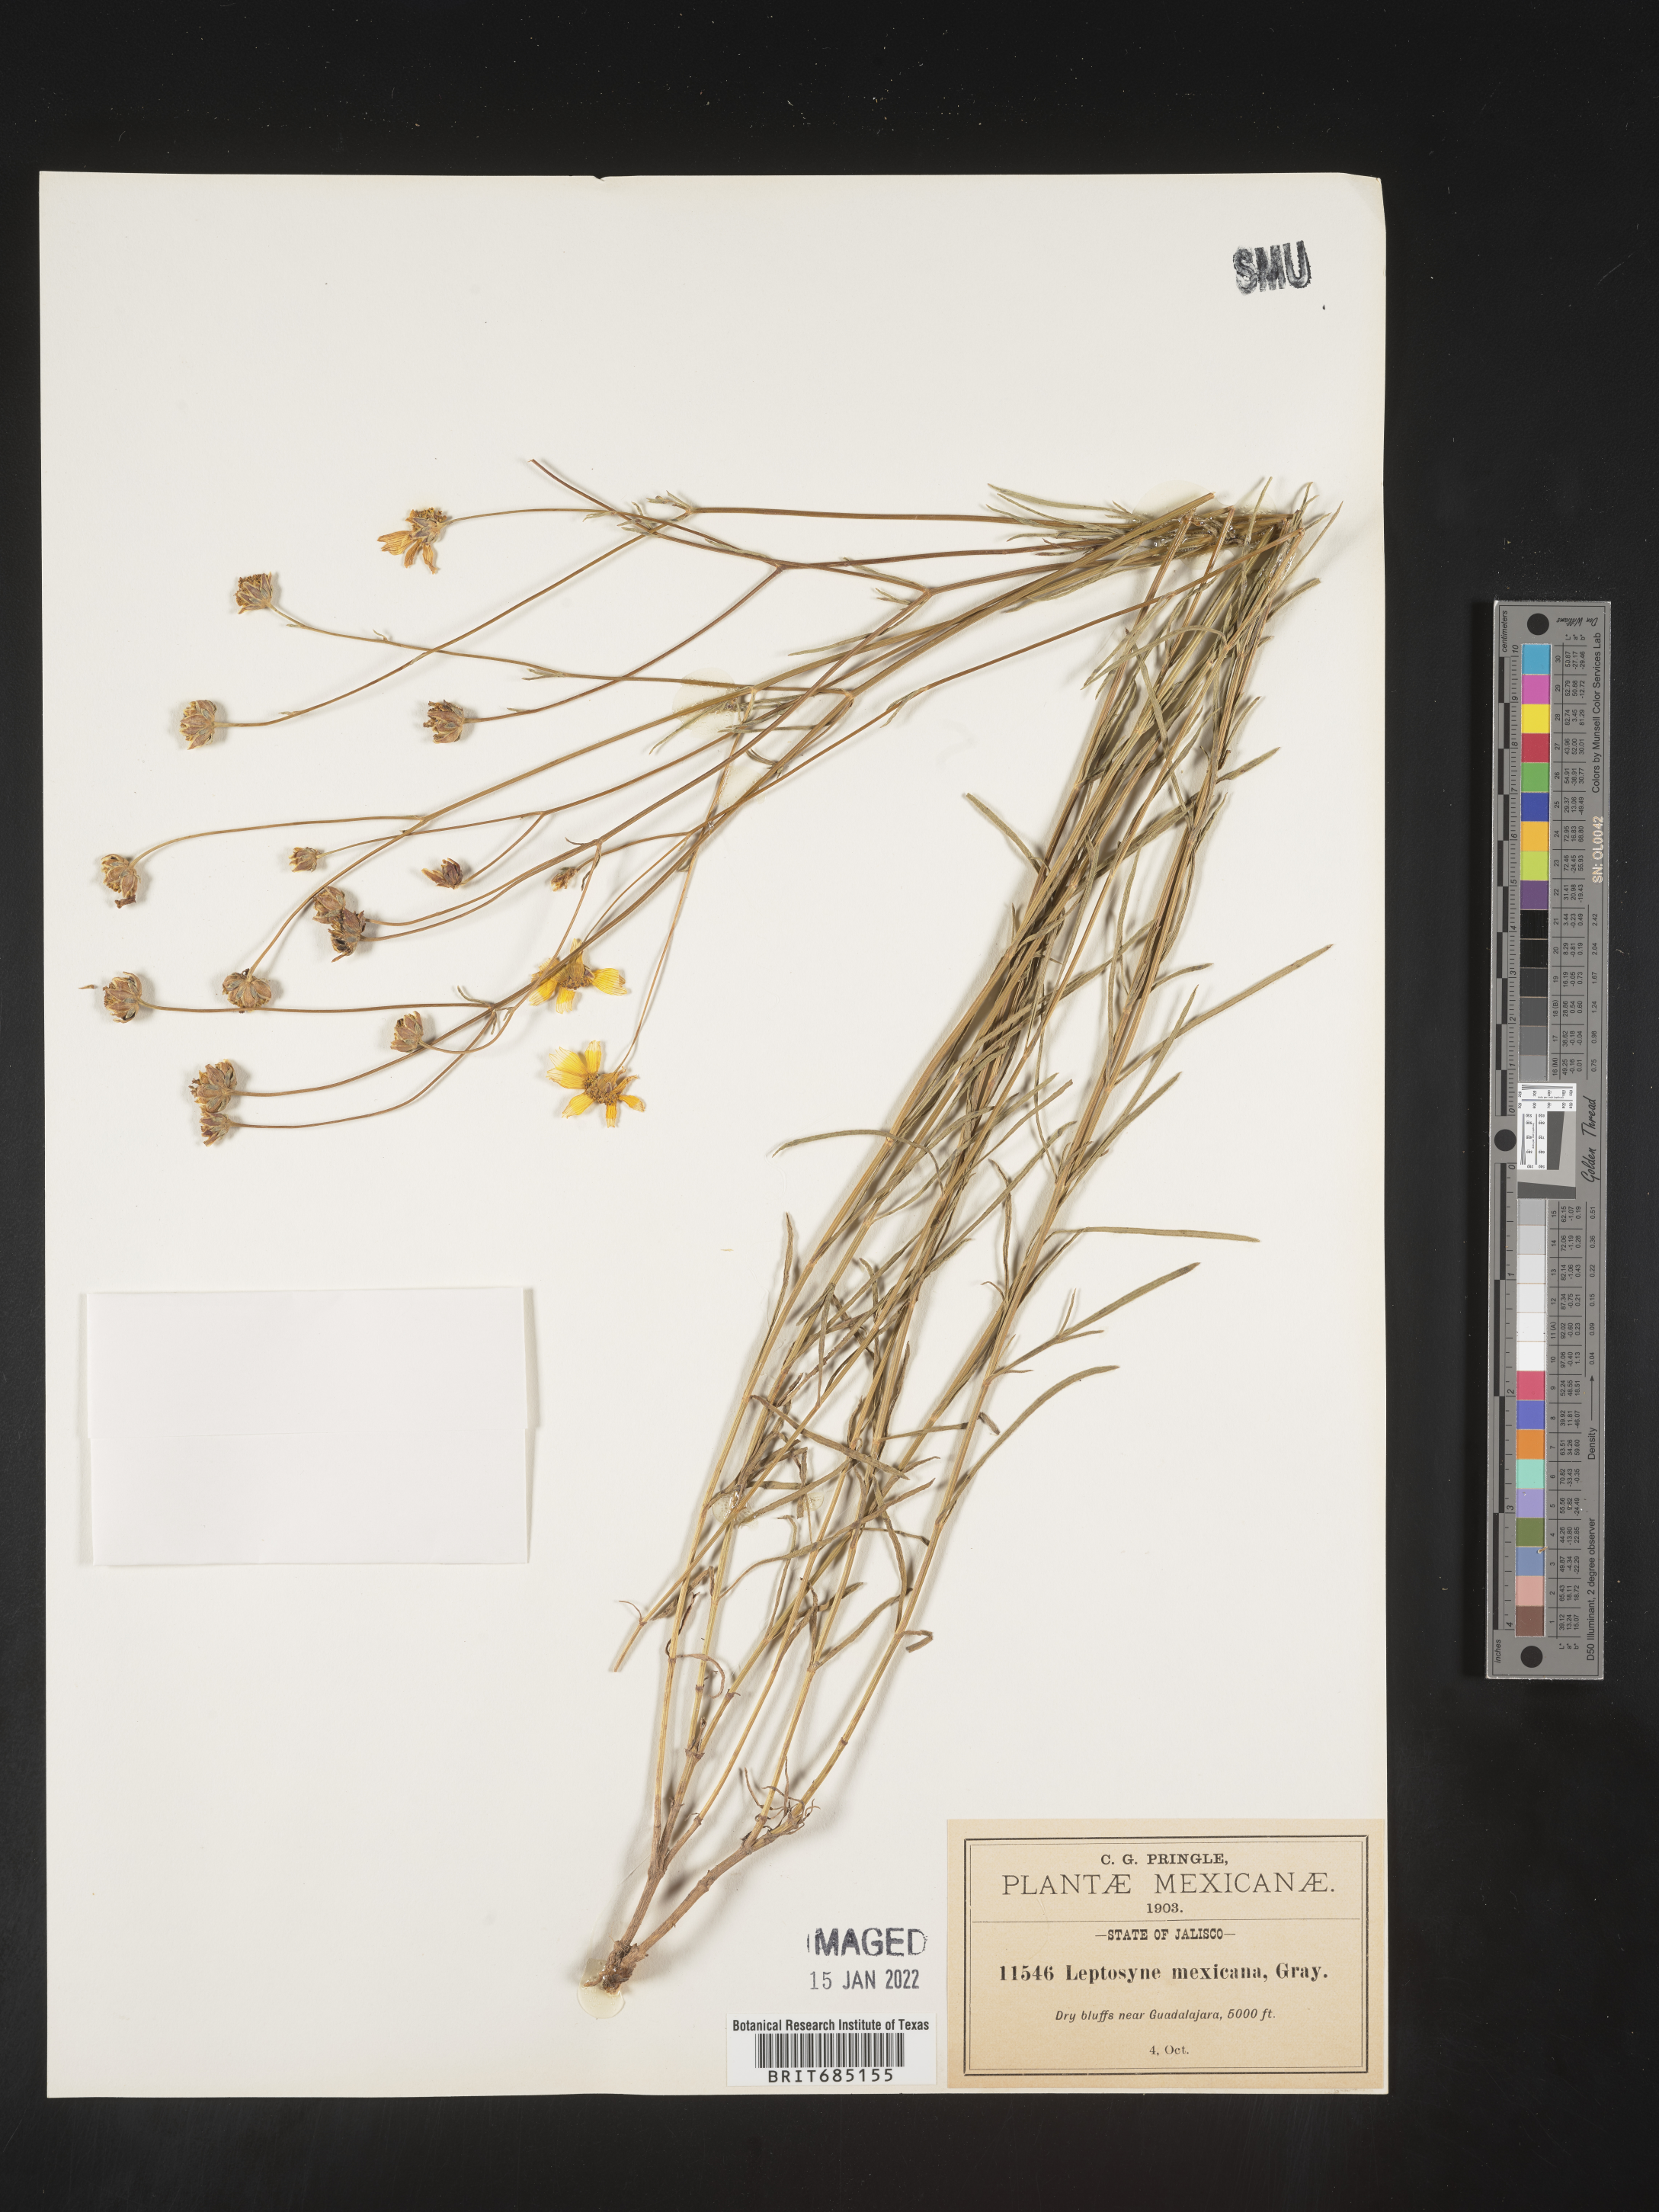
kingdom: Plantae
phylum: Tracheophyta
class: Magnoliopsida
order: Asterales
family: Asteraceae
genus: Bidens
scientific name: Bidens
